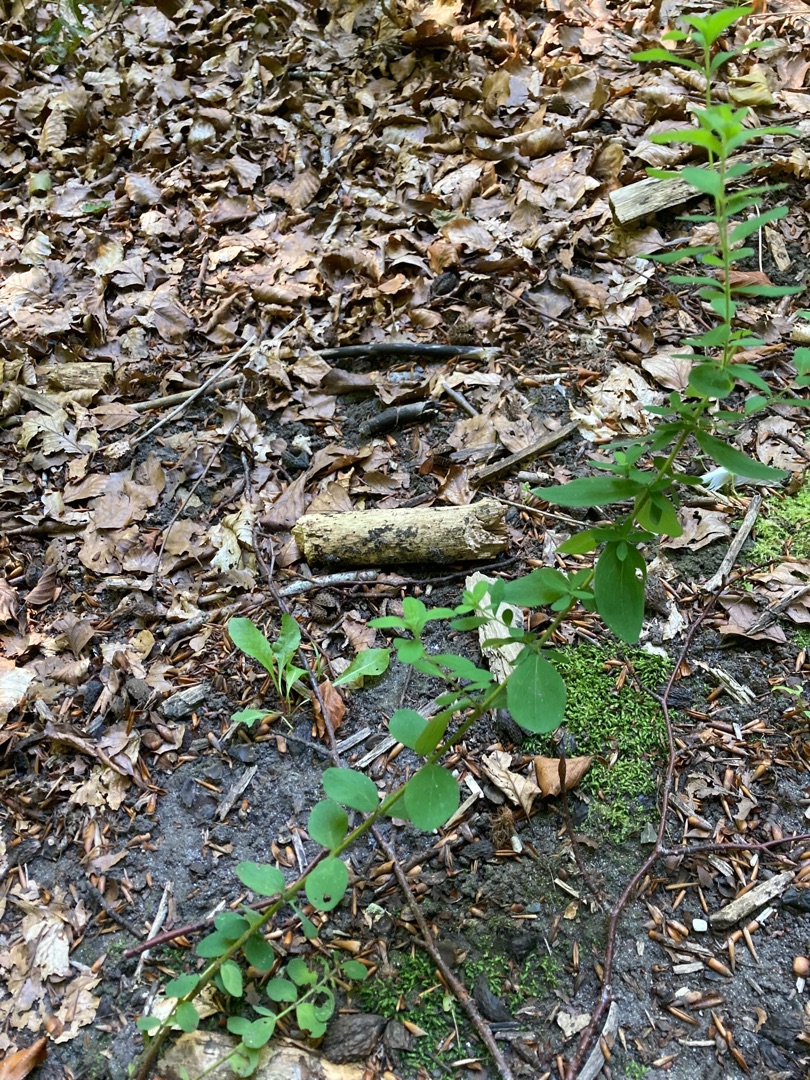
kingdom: Plantae
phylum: Tracheophyta
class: Magnoliopsida
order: Malpighiales
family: Hypericaceae
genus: Hypericum
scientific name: Hypericum hirsutum
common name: Lådden perikon
